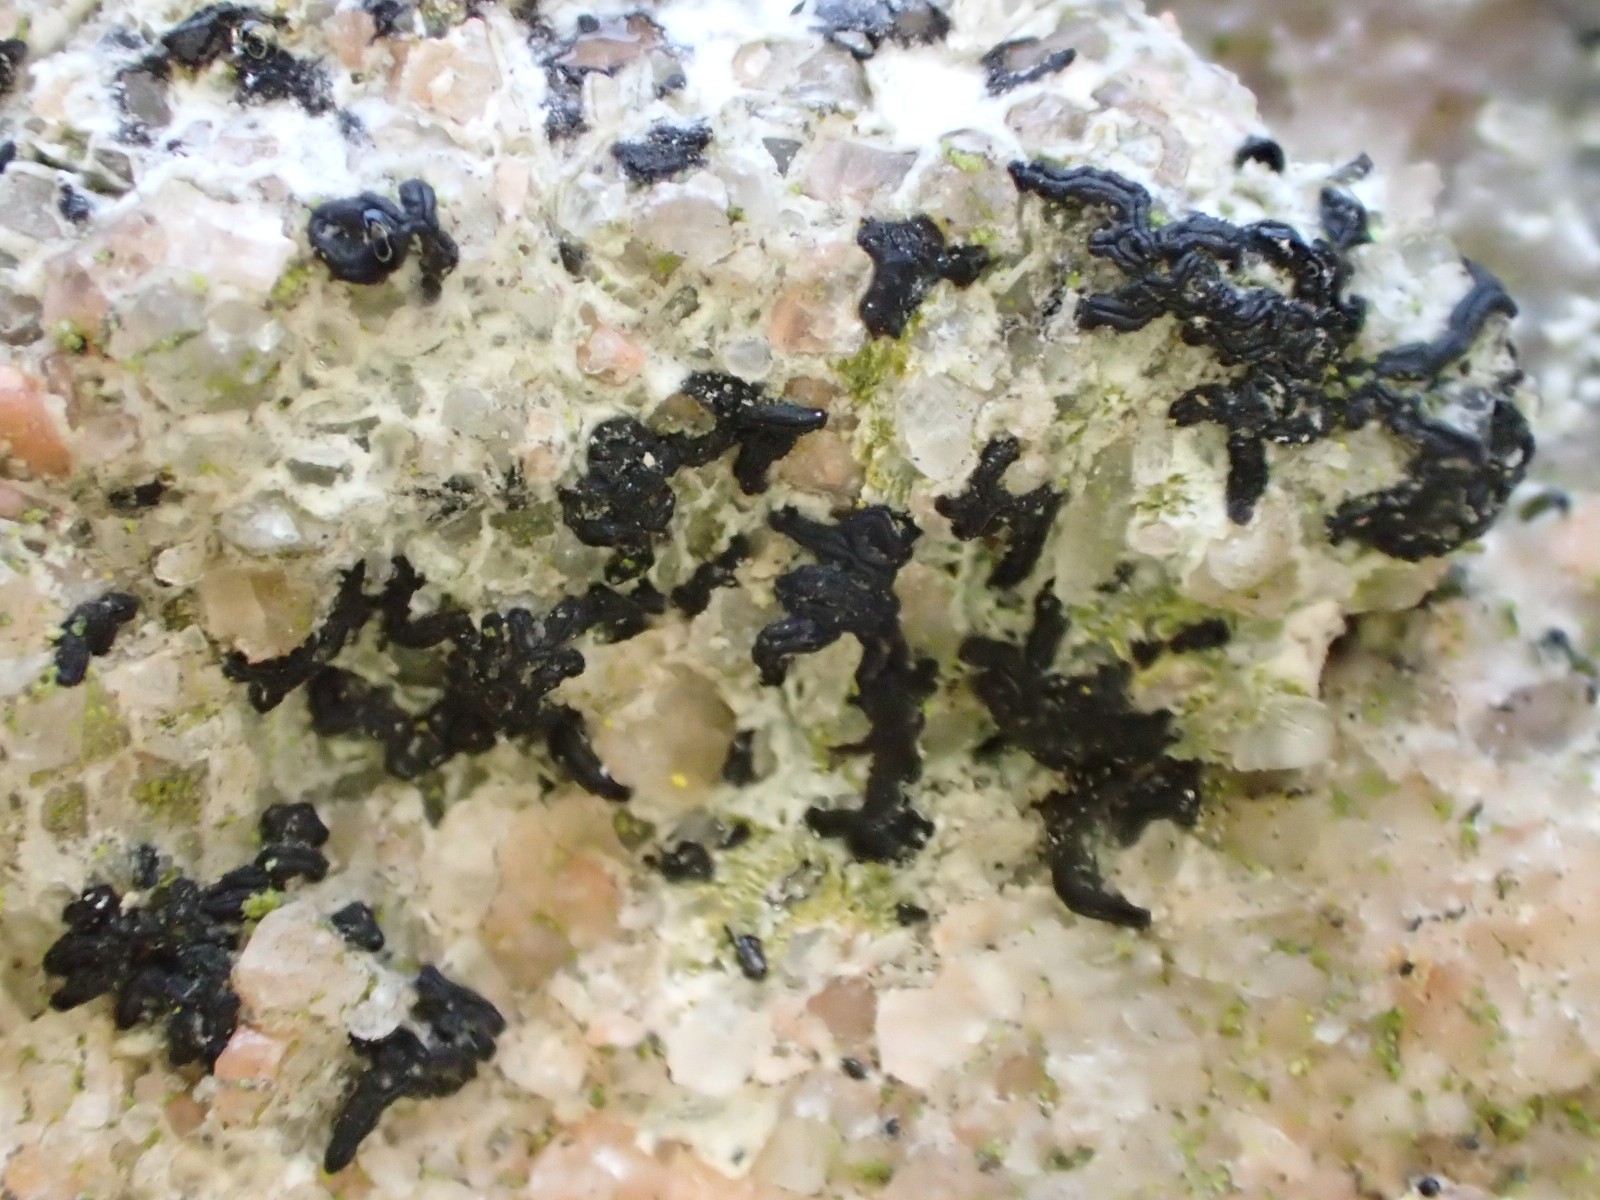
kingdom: Fungi
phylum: Ascomycota
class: Arthoniomycetes
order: Arthoniales
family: Arthoniaceae
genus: Arthonia
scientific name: Arthonia calcarea
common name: kalk-bogstavlav
